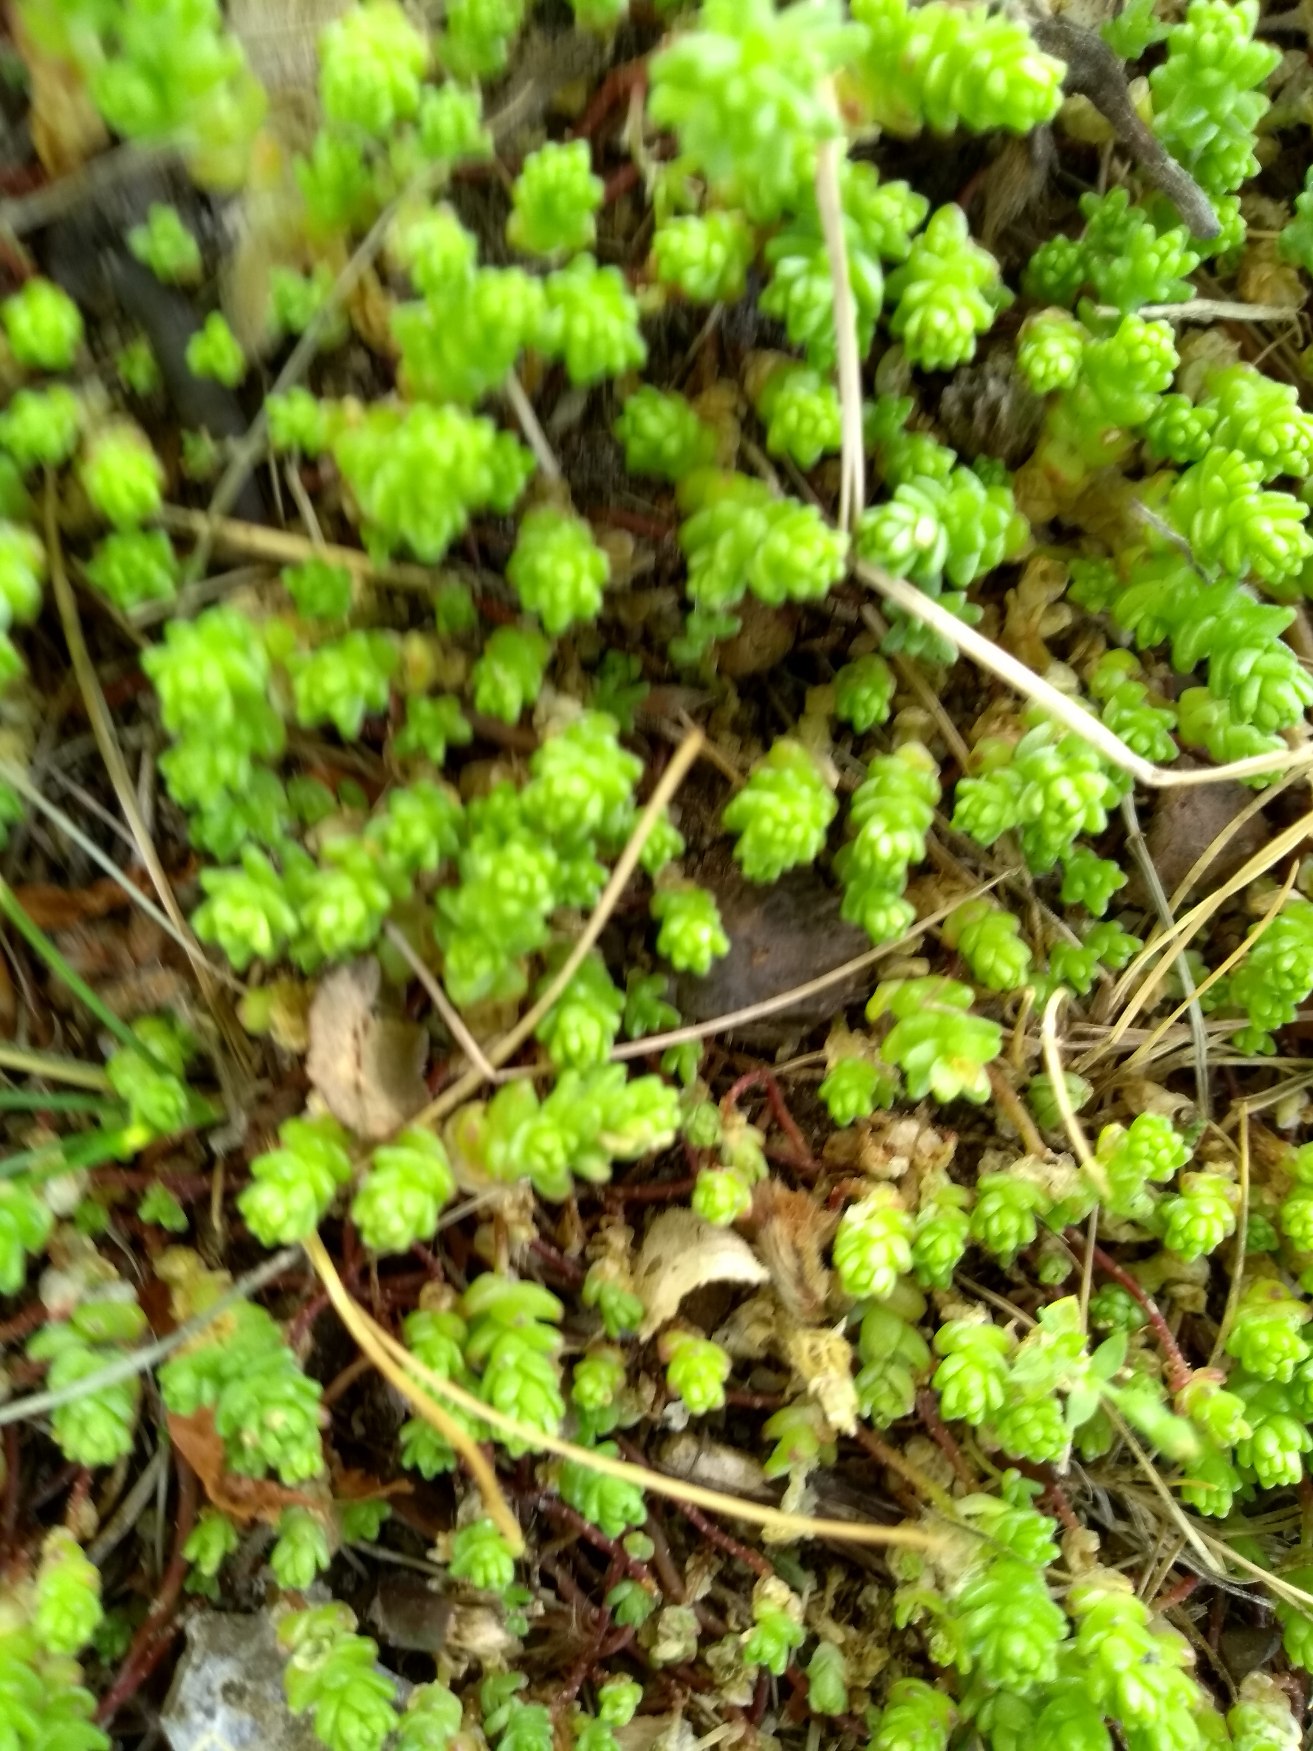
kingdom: Plantae
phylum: Tracheophyta
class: Magnoliopsida
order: Saxifragales
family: Crassulaceae
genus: Sedum
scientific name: Sedum acre
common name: Bidende stenurt
